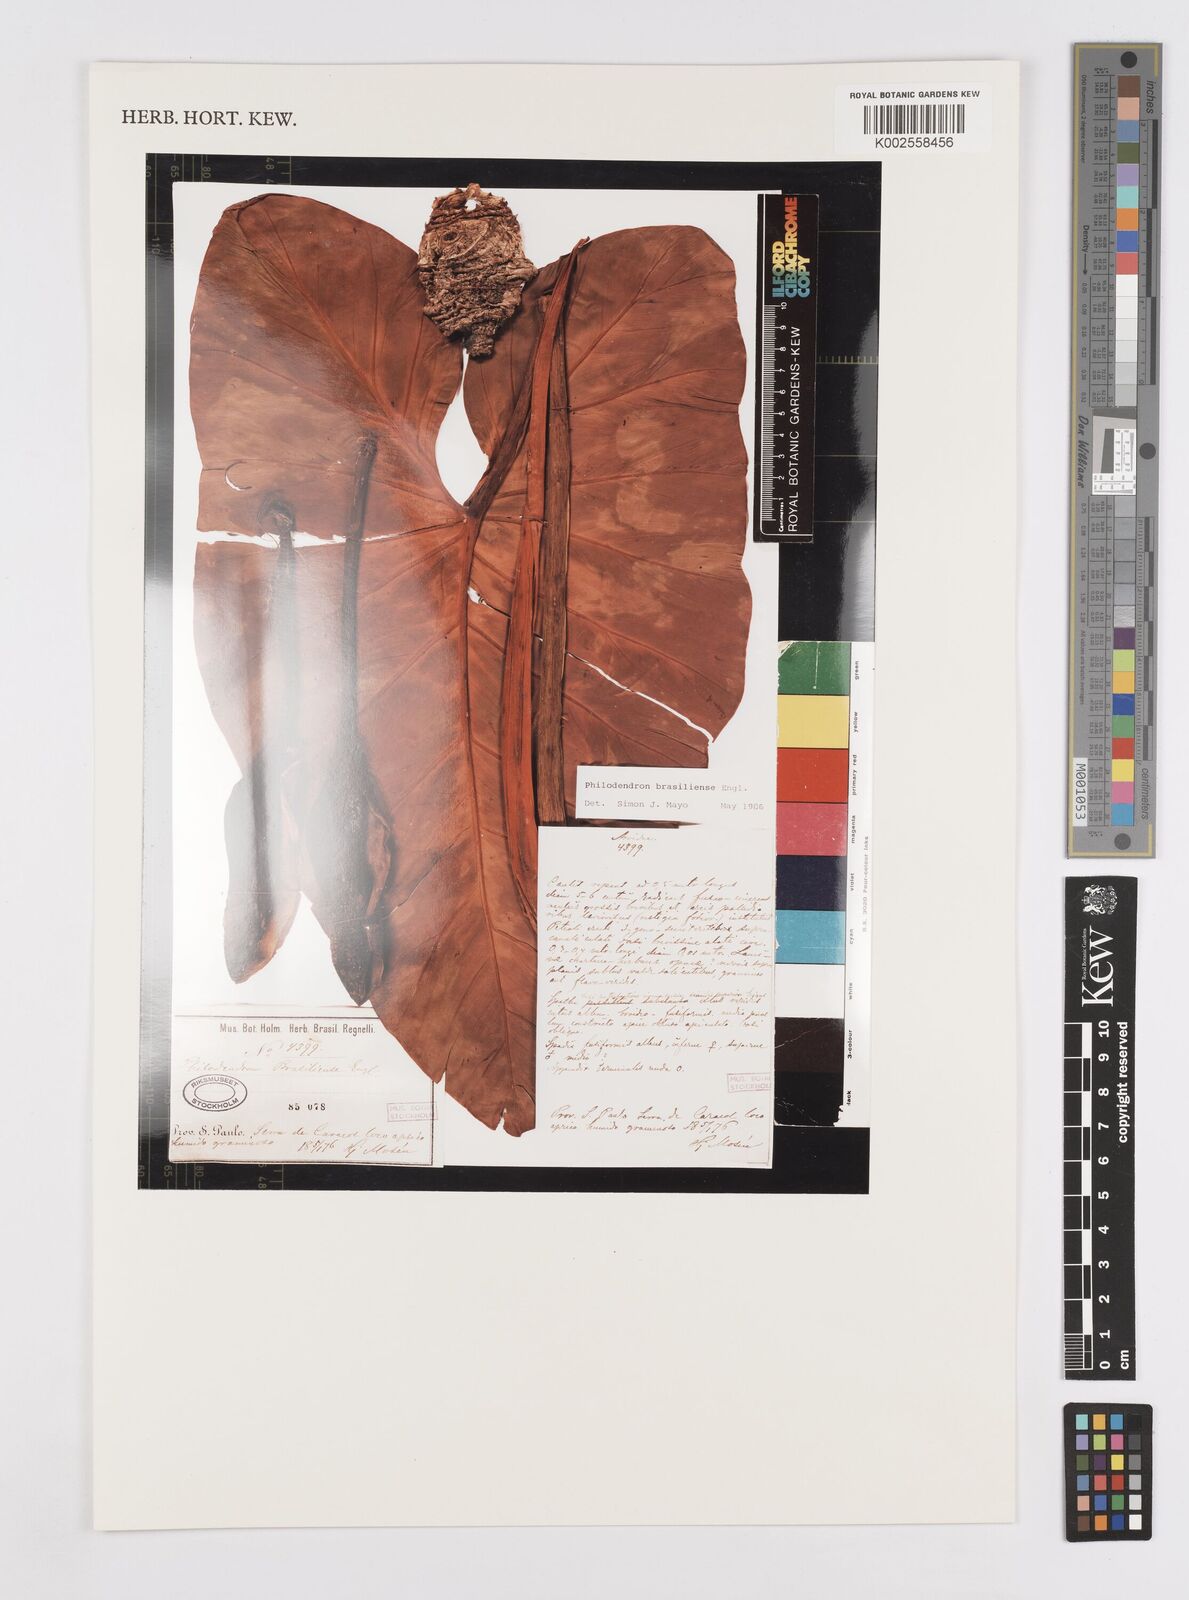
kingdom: Plantae
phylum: Tracheophyta
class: Liliopsida
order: Alismatales
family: Araceae
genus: Thaumatophyllum
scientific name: Thaumatophyllum brasiliense
